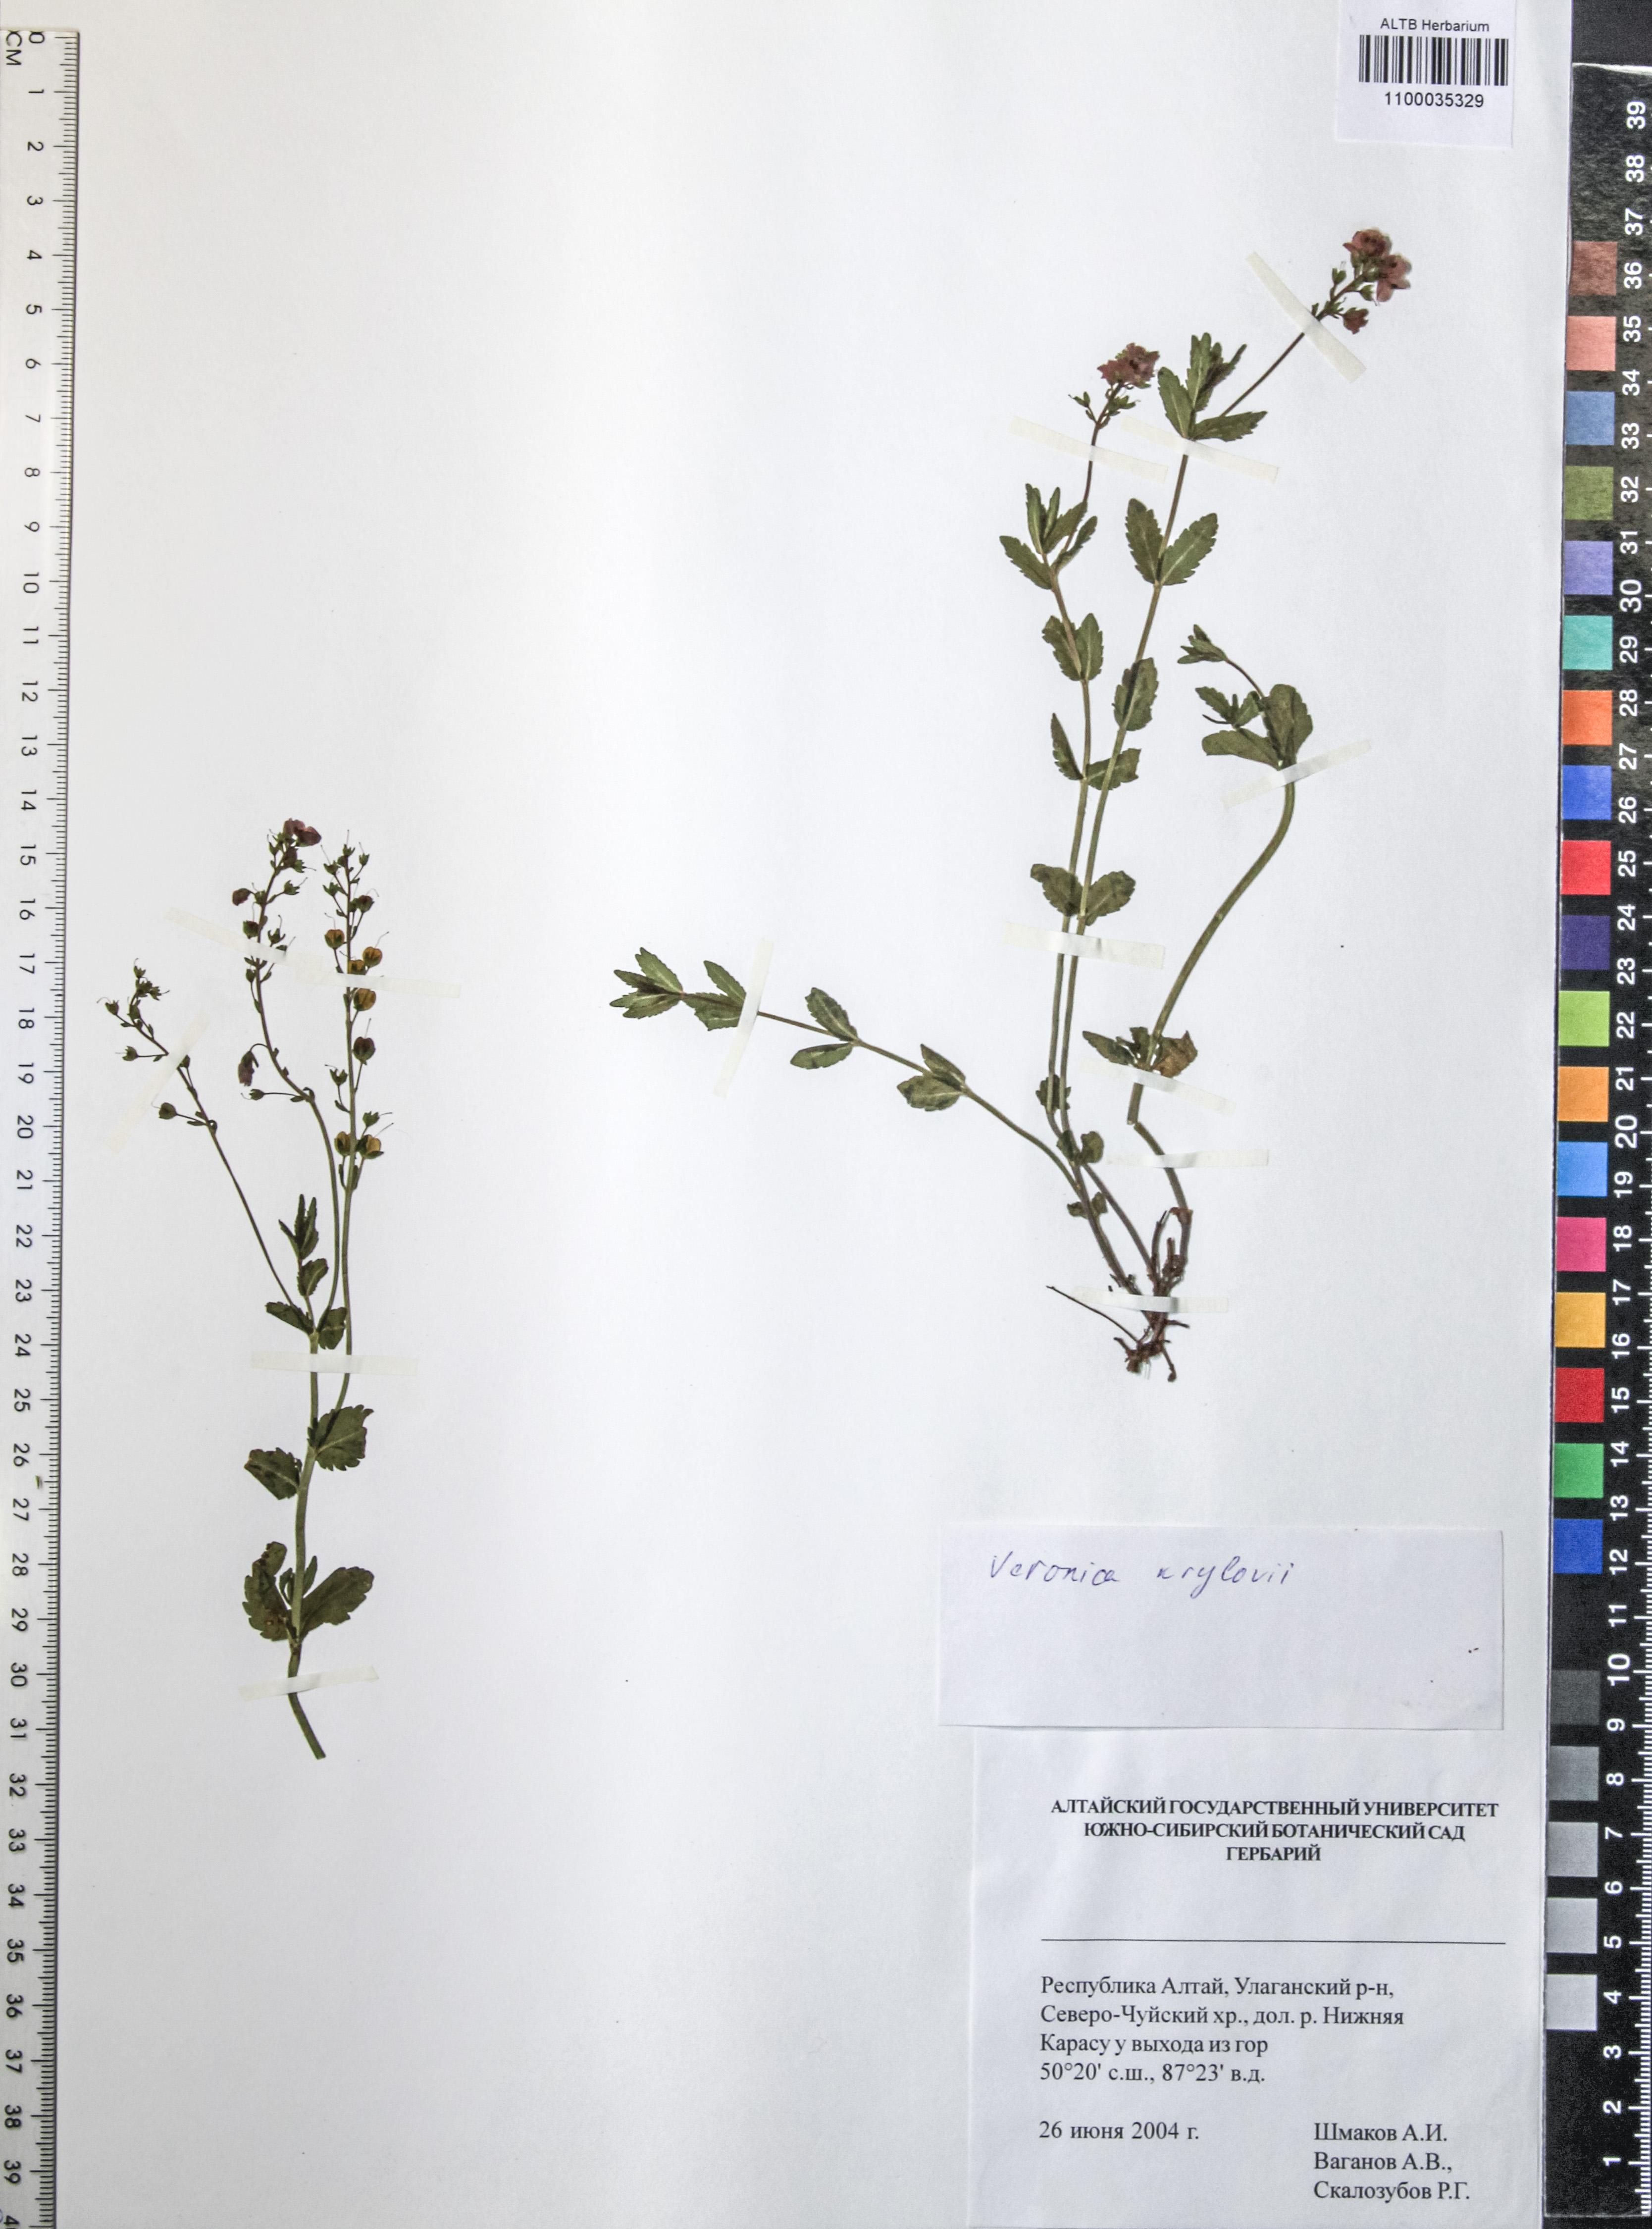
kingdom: Plantae
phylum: Tracheophyta
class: Magnoliopsida
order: Lamiales
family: Plantaginaceae
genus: Veronica
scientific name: Veronica krylovii
